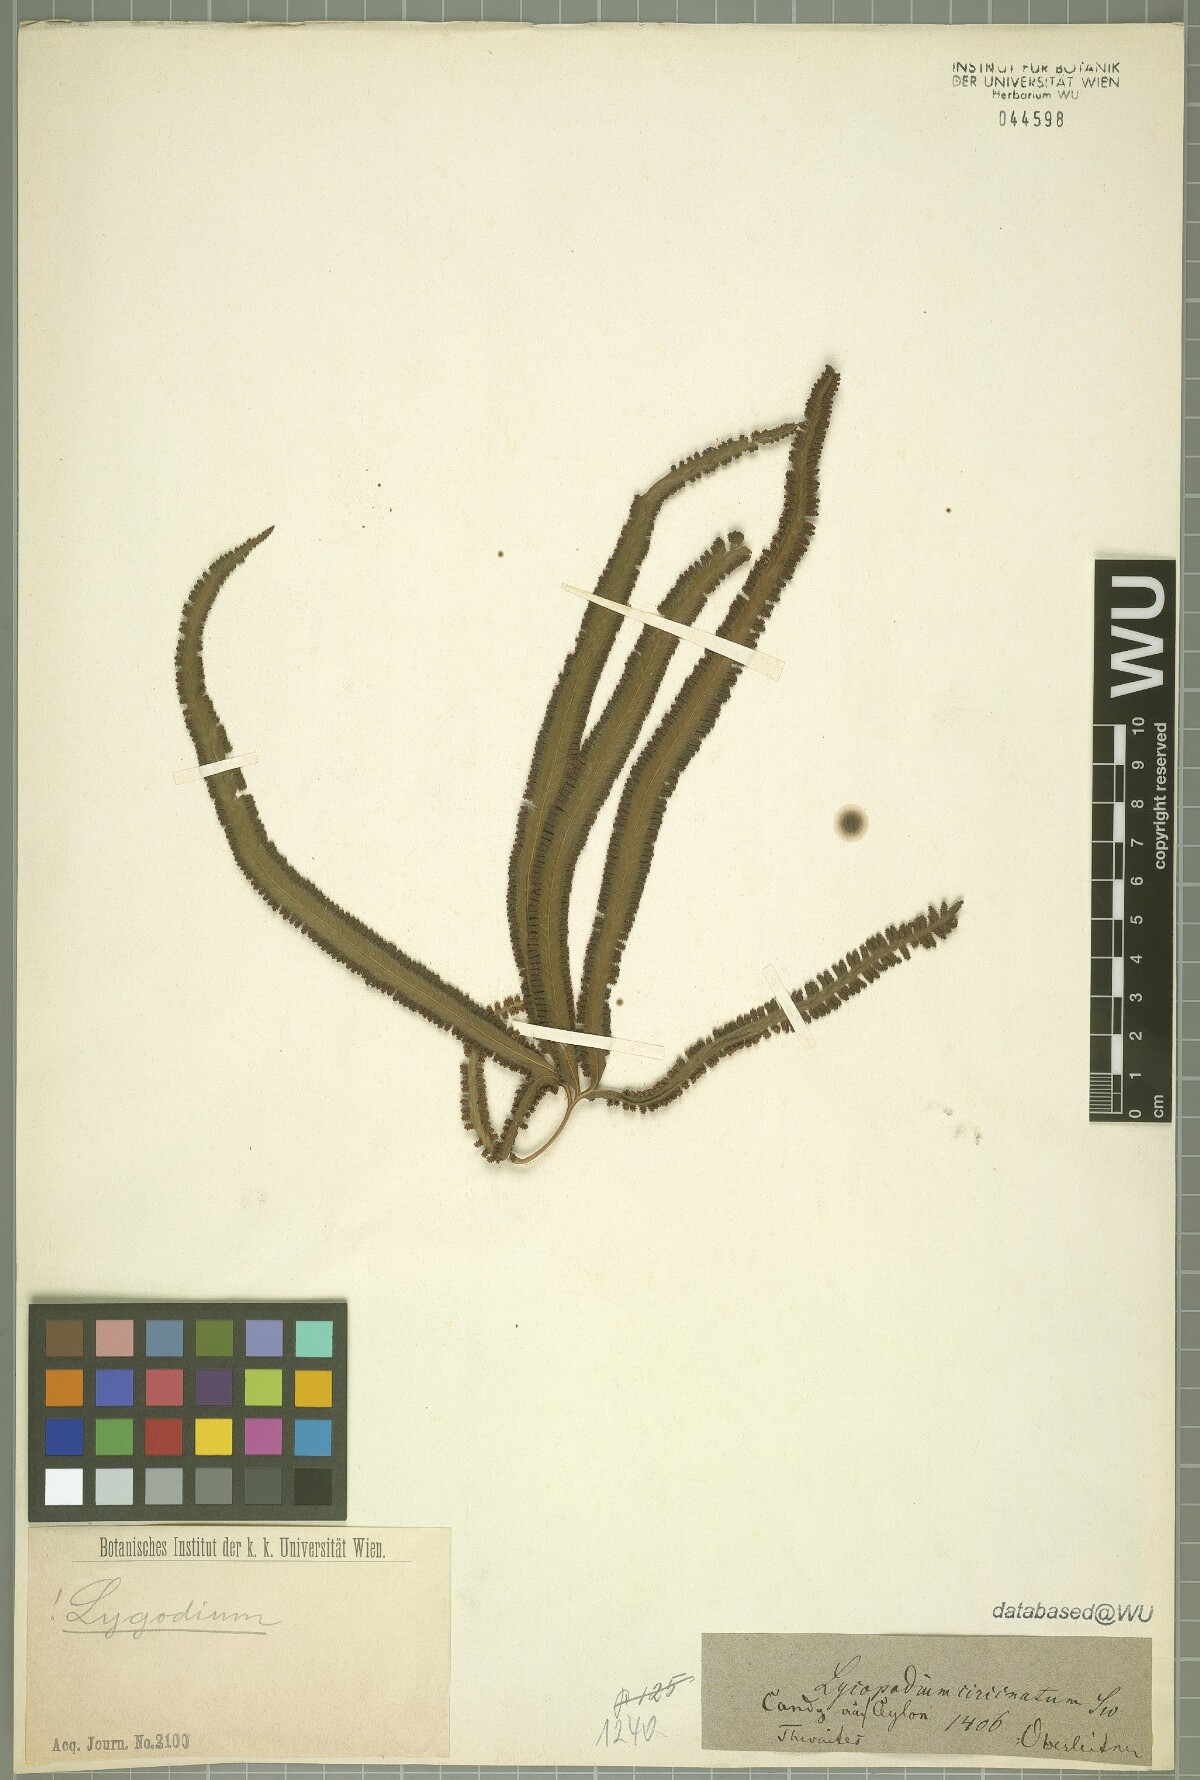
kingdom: Plantae
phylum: Tracheophyta
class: Polypodiopsida
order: Schizaeales
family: Lygodiaceae
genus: Lygodium
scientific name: Lygodium circinnatum
